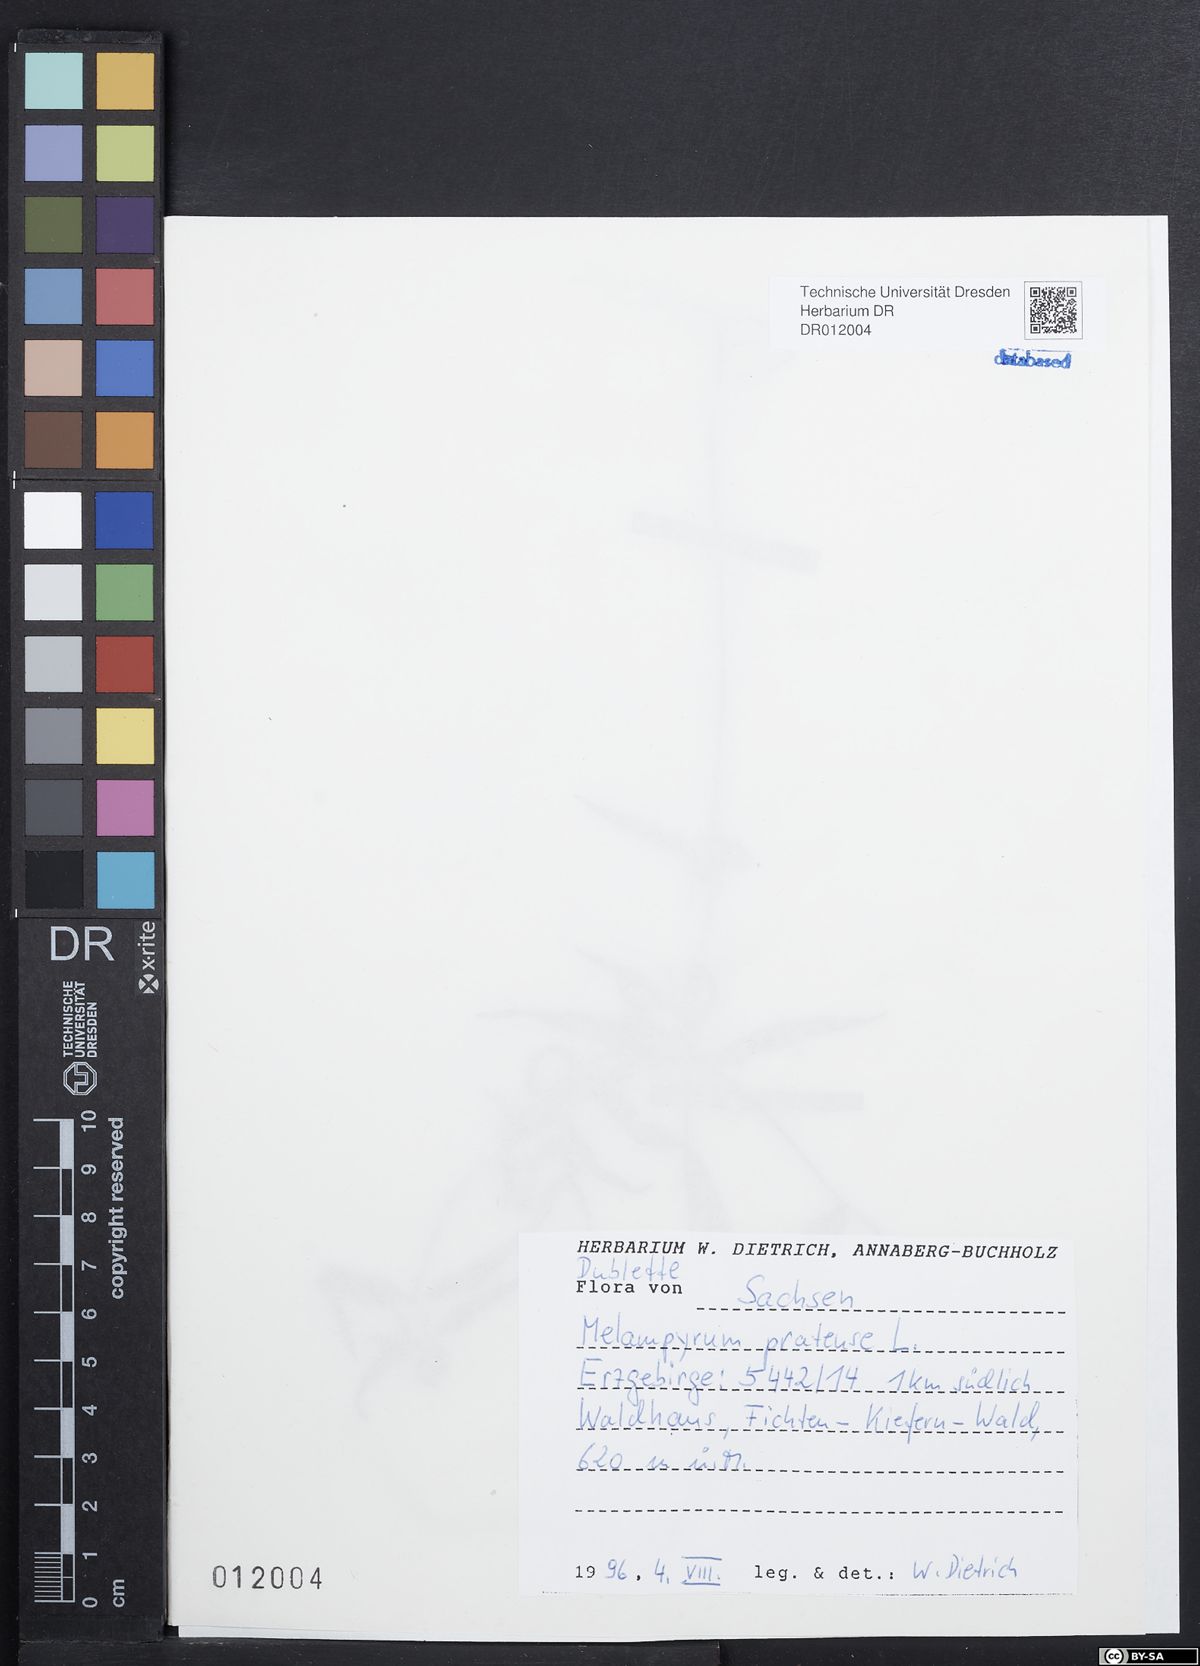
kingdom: Plantae
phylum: Tracheophyta
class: Magnoliopsida
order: Lamiales
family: Orobanchaceae
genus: Melampyrum
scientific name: Melampyrum pratense
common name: Common cow-wheat
